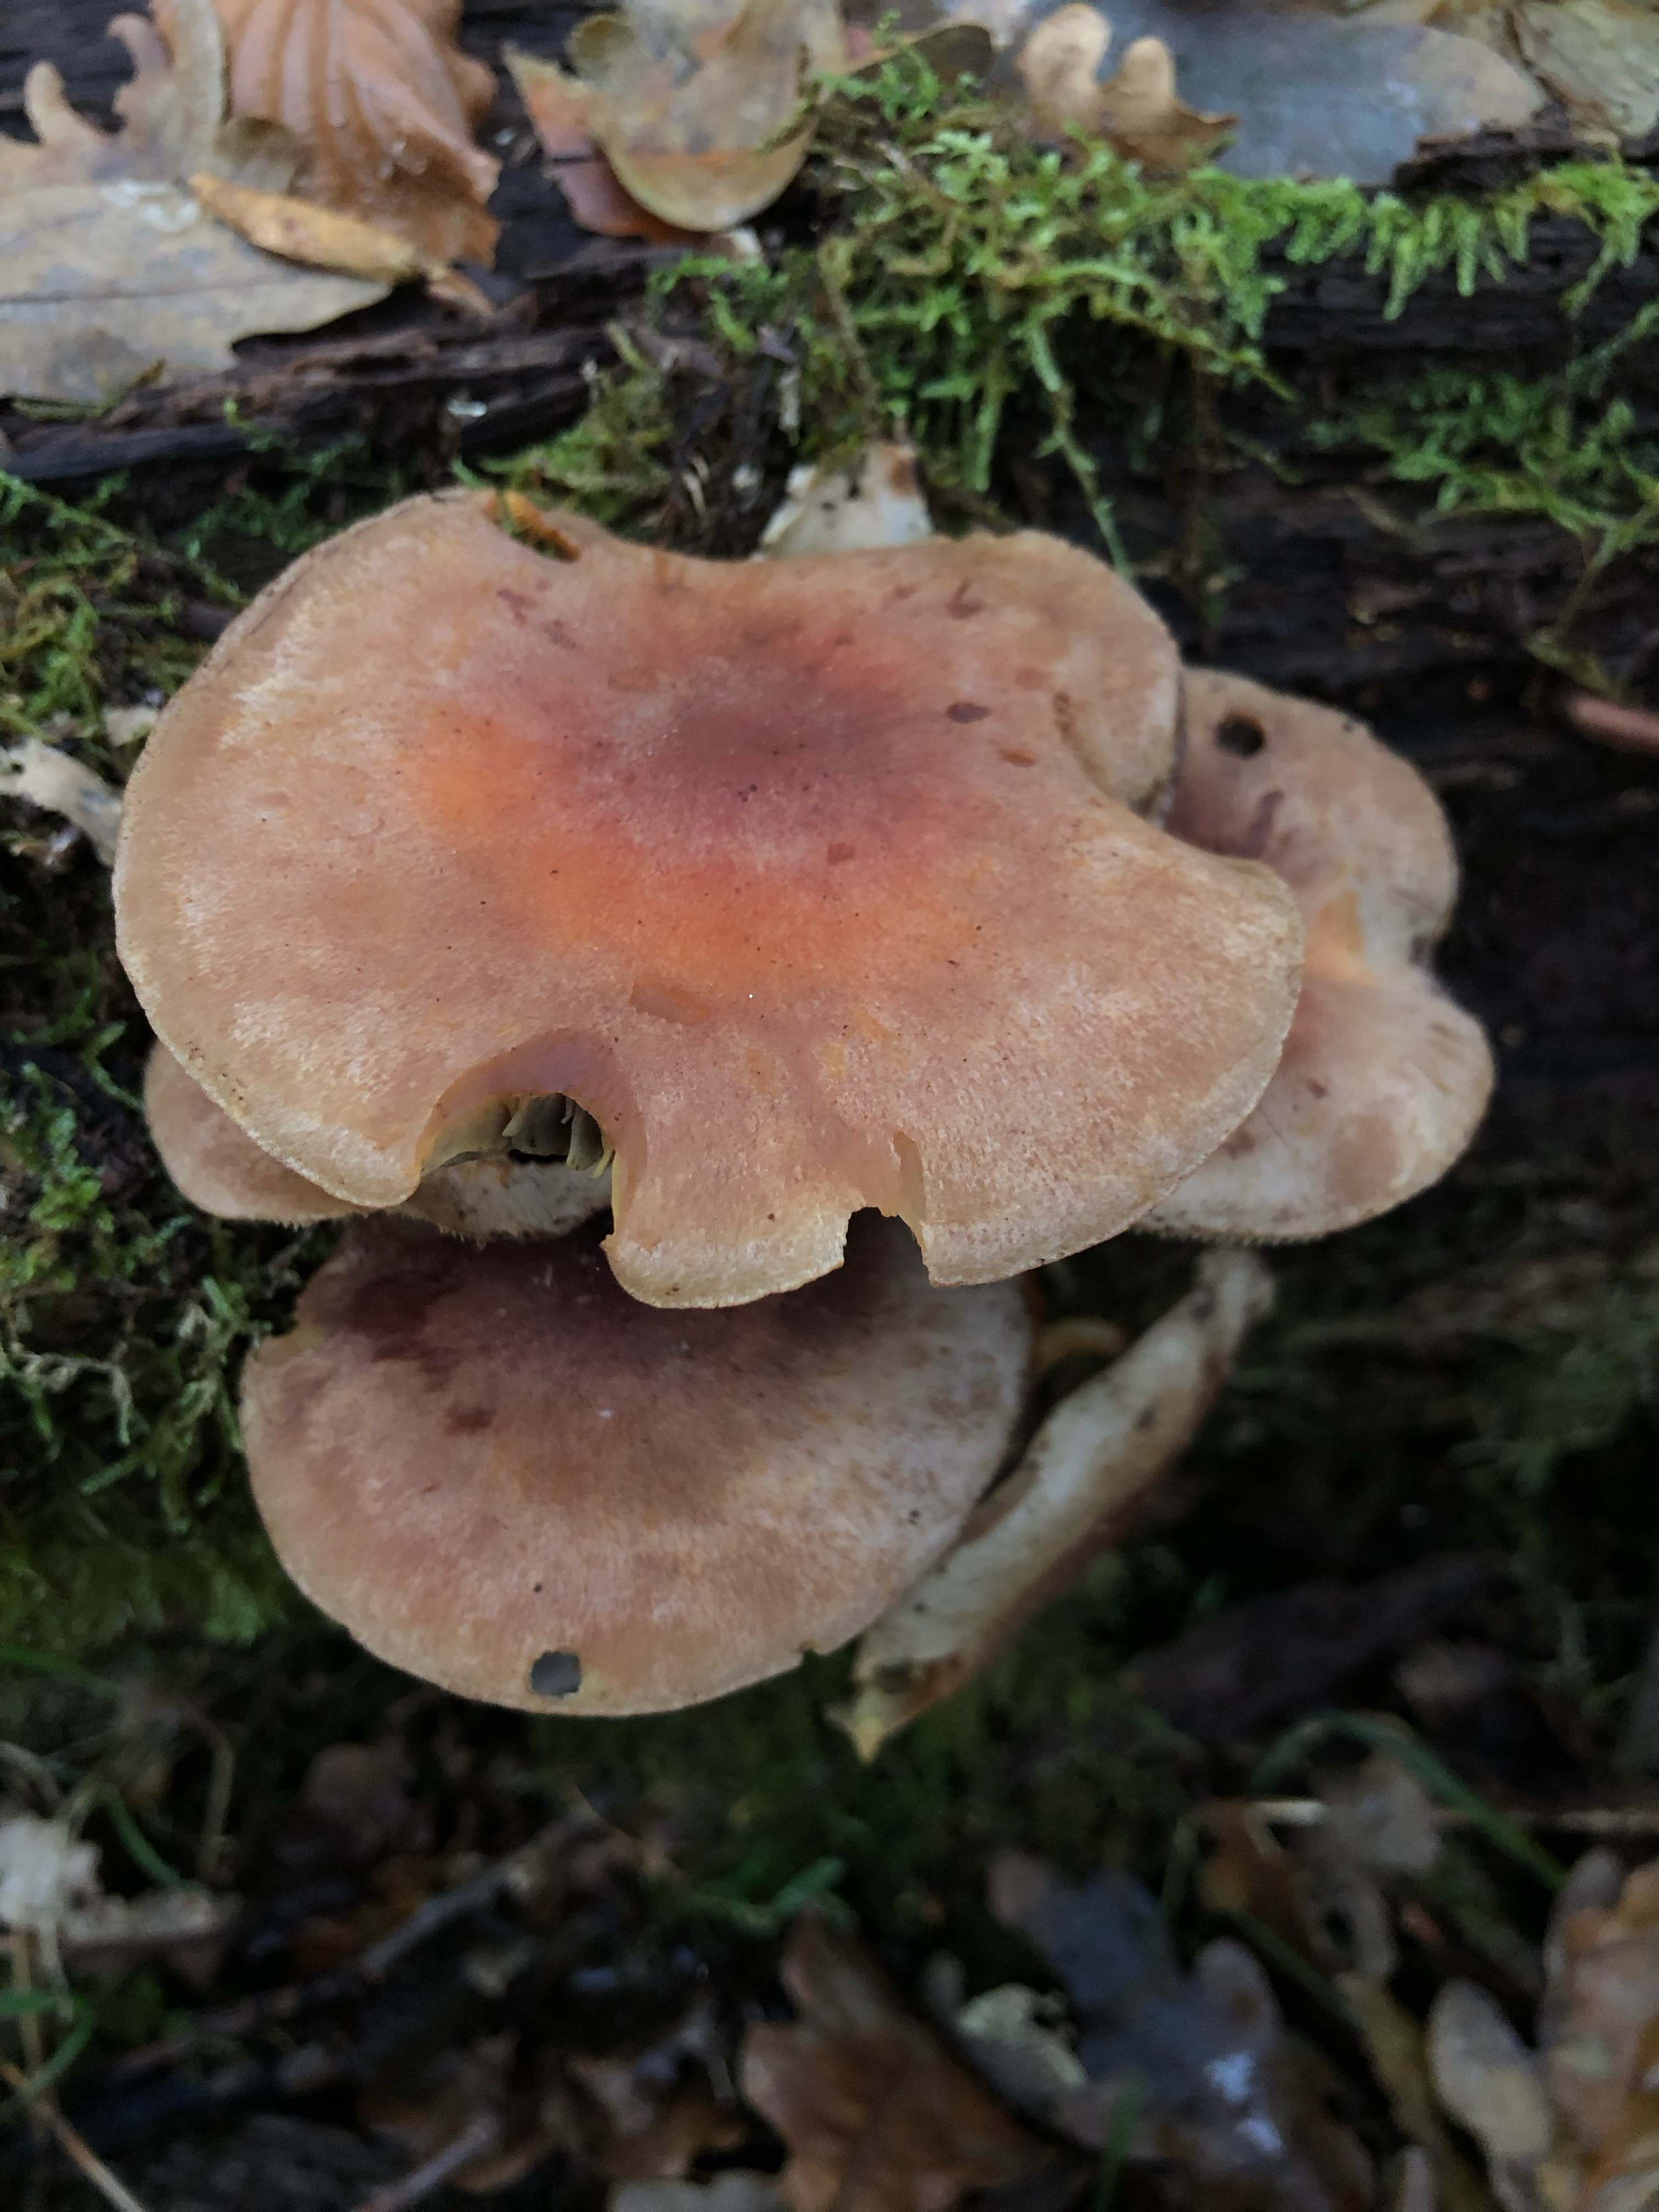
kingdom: Fungi
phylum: Basidiomycota
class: Agaricomycetes
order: Agaricales
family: Strophariaceae
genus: Hypholoma
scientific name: Hypholoma lateritium
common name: teglrød svovlhat
